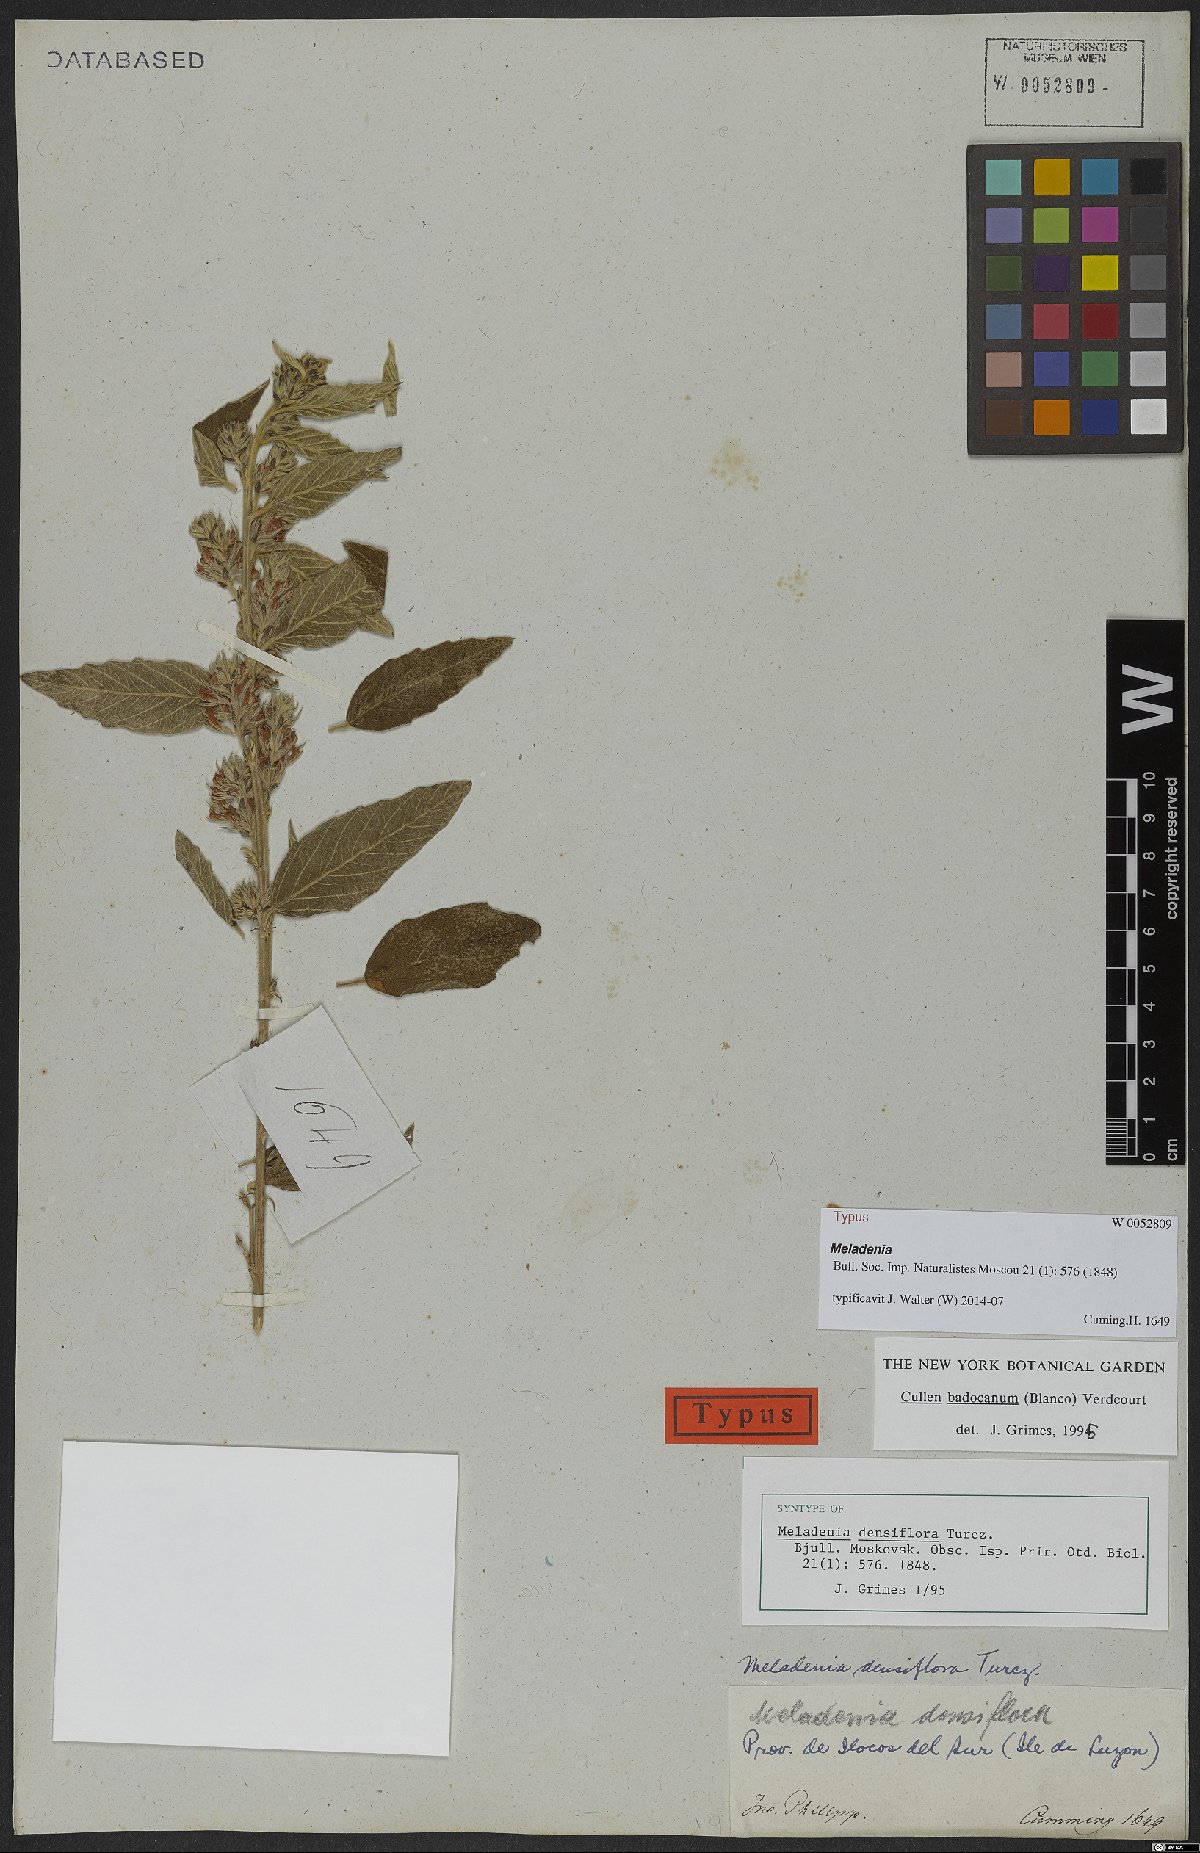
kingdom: Plantae
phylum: Tracheophyta
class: Magnoliopsida
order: Fabales
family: Fabaceae
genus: Cullen
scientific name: Cullen badocanum
